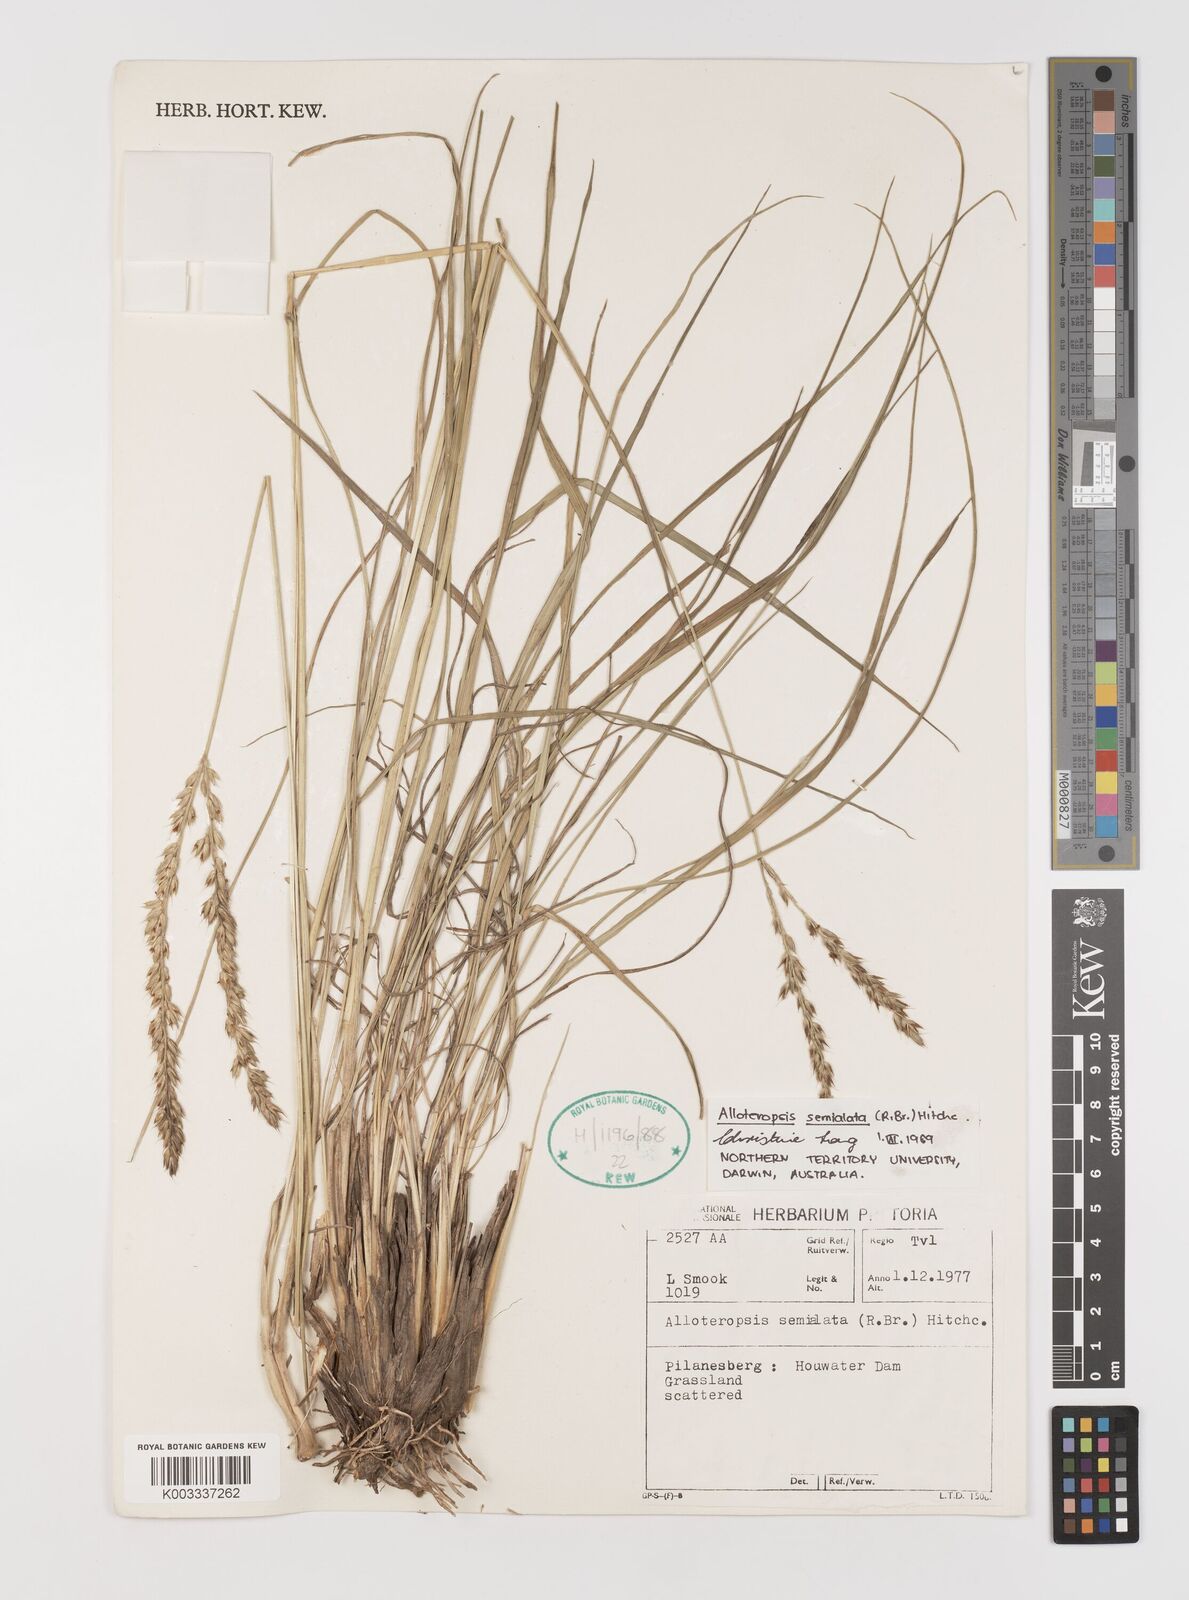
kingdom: Plantae
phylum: Tracheophyta
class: Liliopsida
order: Poales
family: Poaceae
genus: Alloteropsis
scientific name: Alloteropsis semialata
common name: Cockatoo grass
